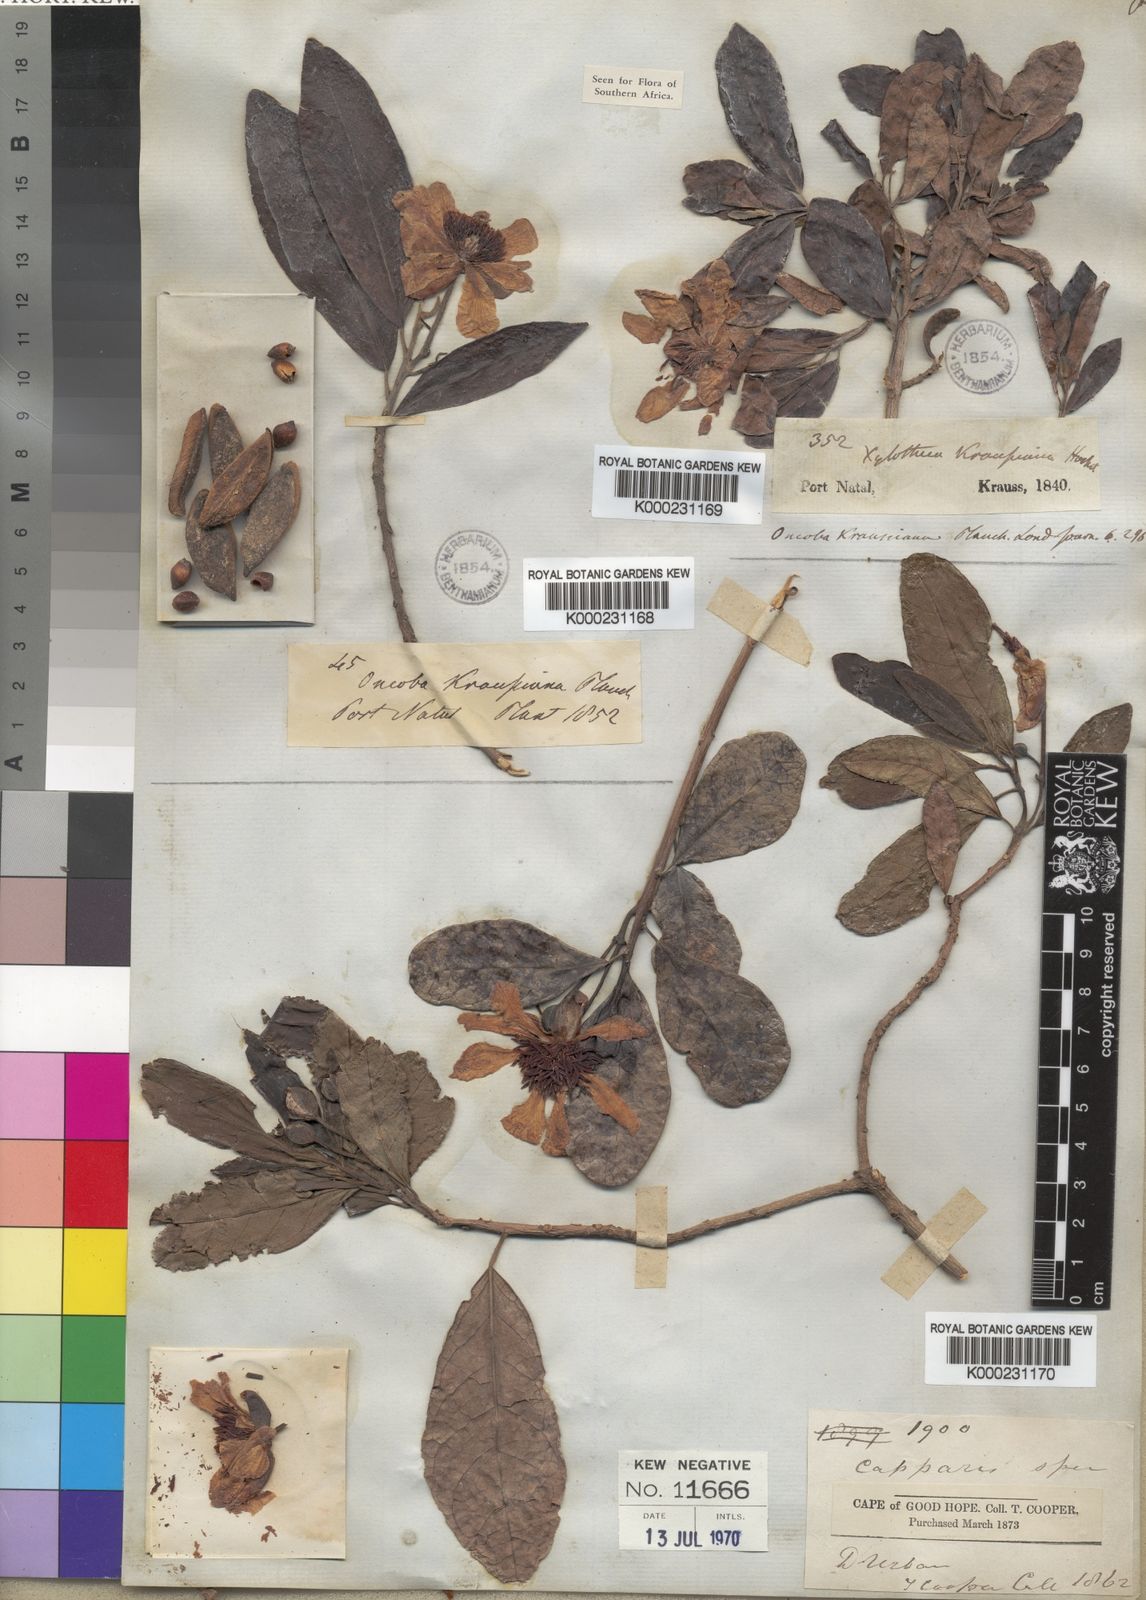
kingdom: Plantae
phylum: Tracheophyta
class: Magnoliopsida
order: Malpighiales
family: Achariaceae
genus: Xylotheca
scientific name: Xylotheca kraussiana
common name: African dog rose
